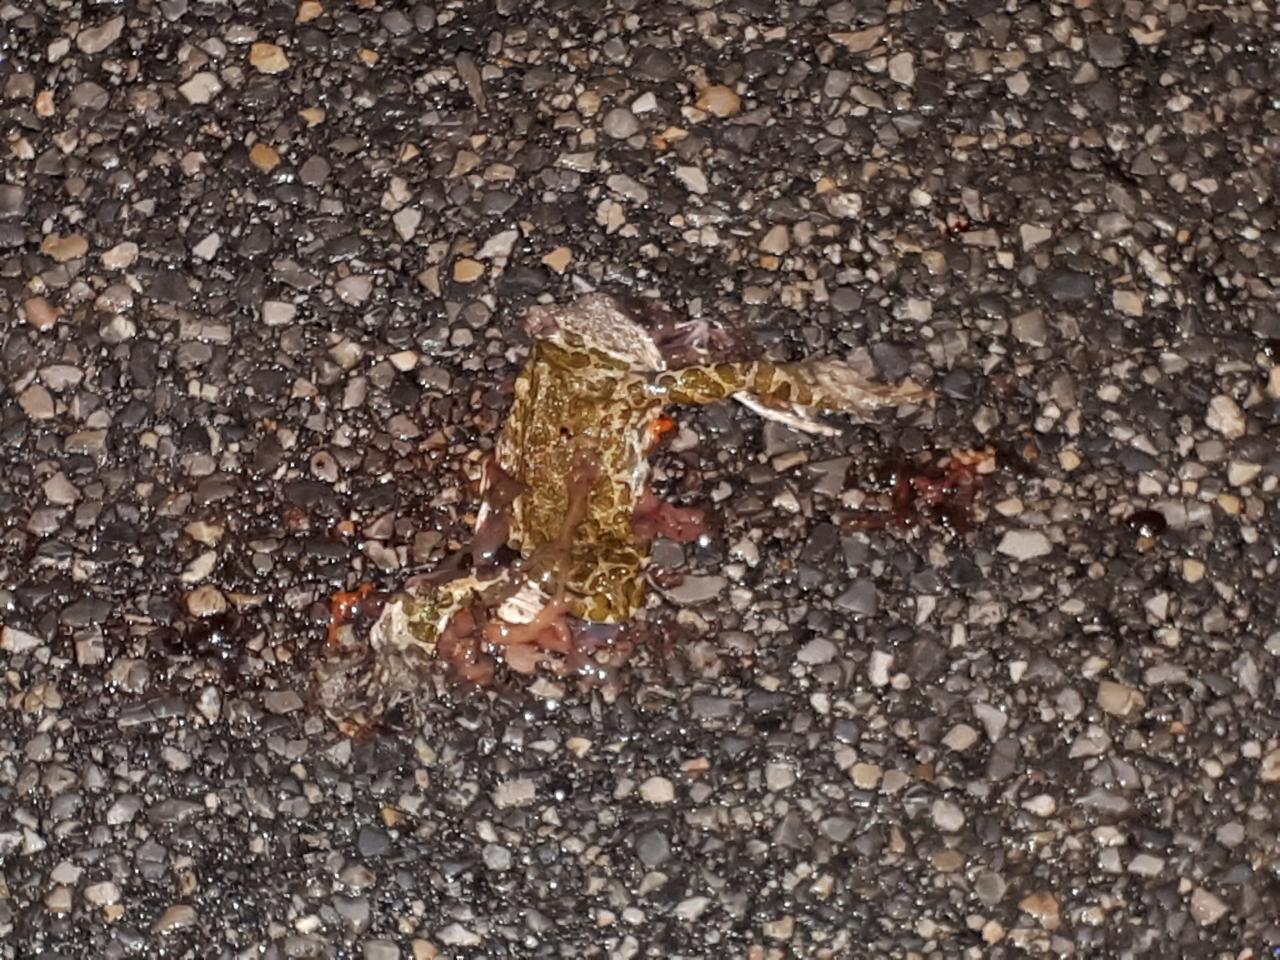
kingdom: Animalia
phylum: Chordata
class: Amphibia
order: Anura
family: Bufonidae
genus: Bufotes
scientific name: Bufotes viridis
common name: European green toad
